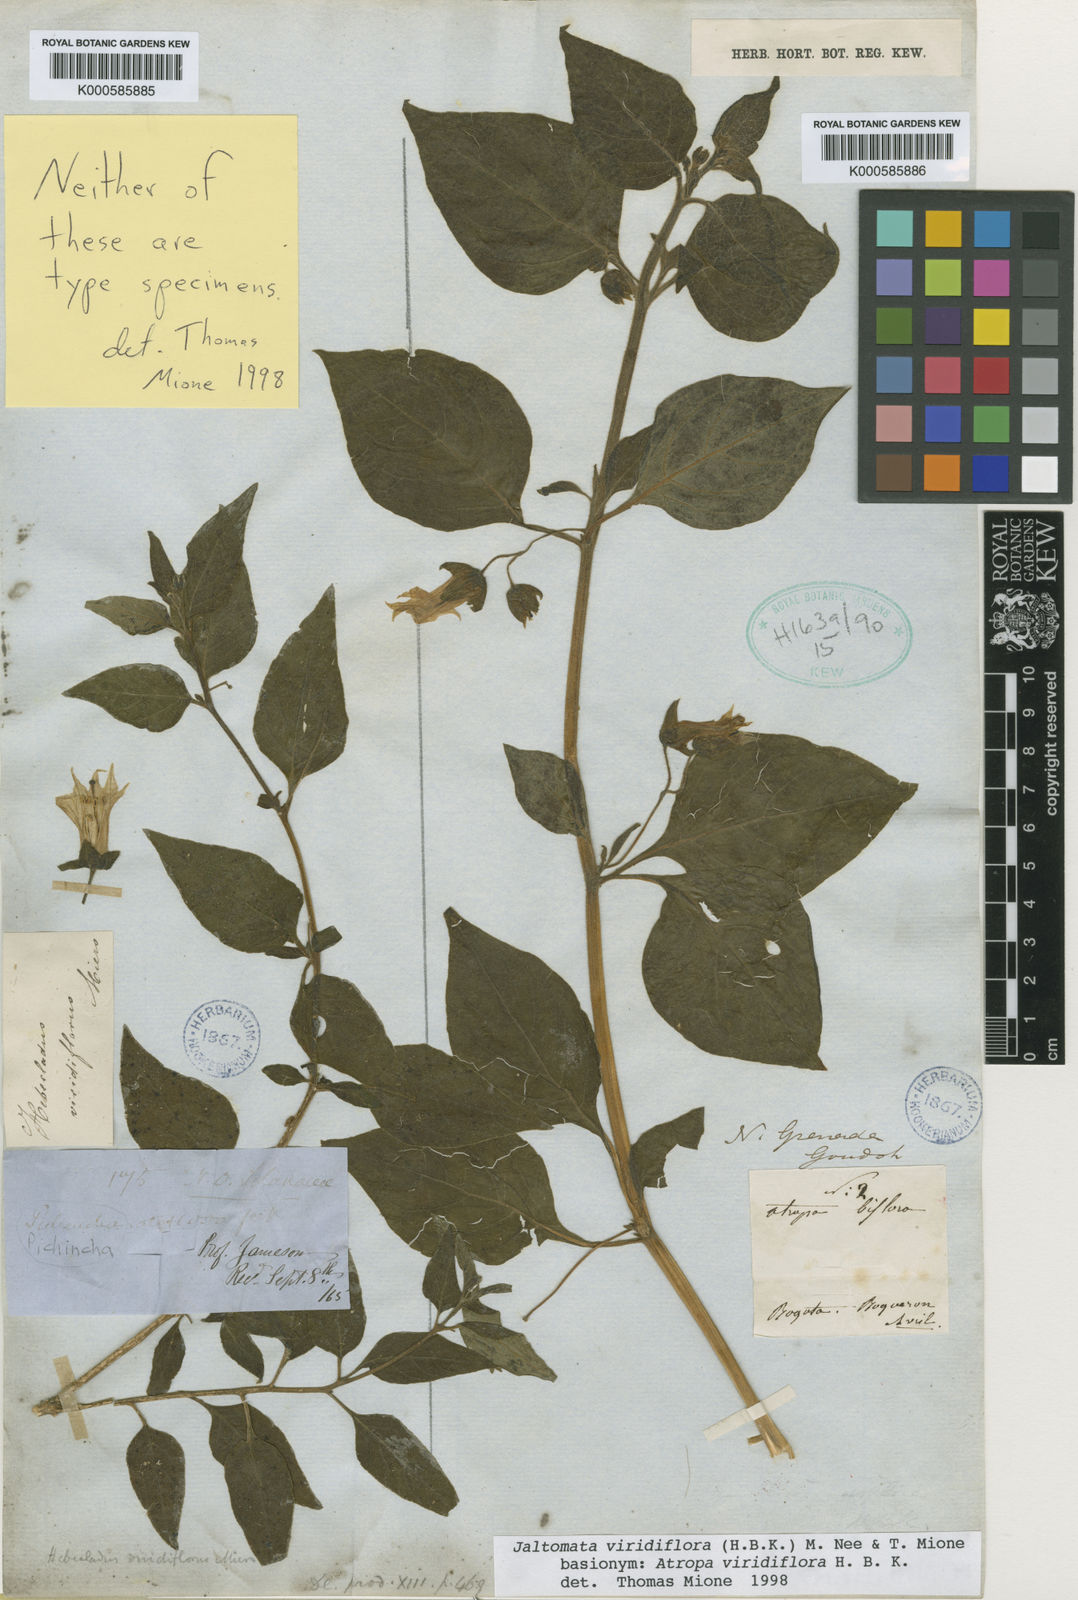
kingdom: Plantae
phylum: Tracheophyta
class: Magnoliopsida
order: Solanales
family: Solanaceae
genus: Jaltomata
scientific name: Jaltomata viridiflora
